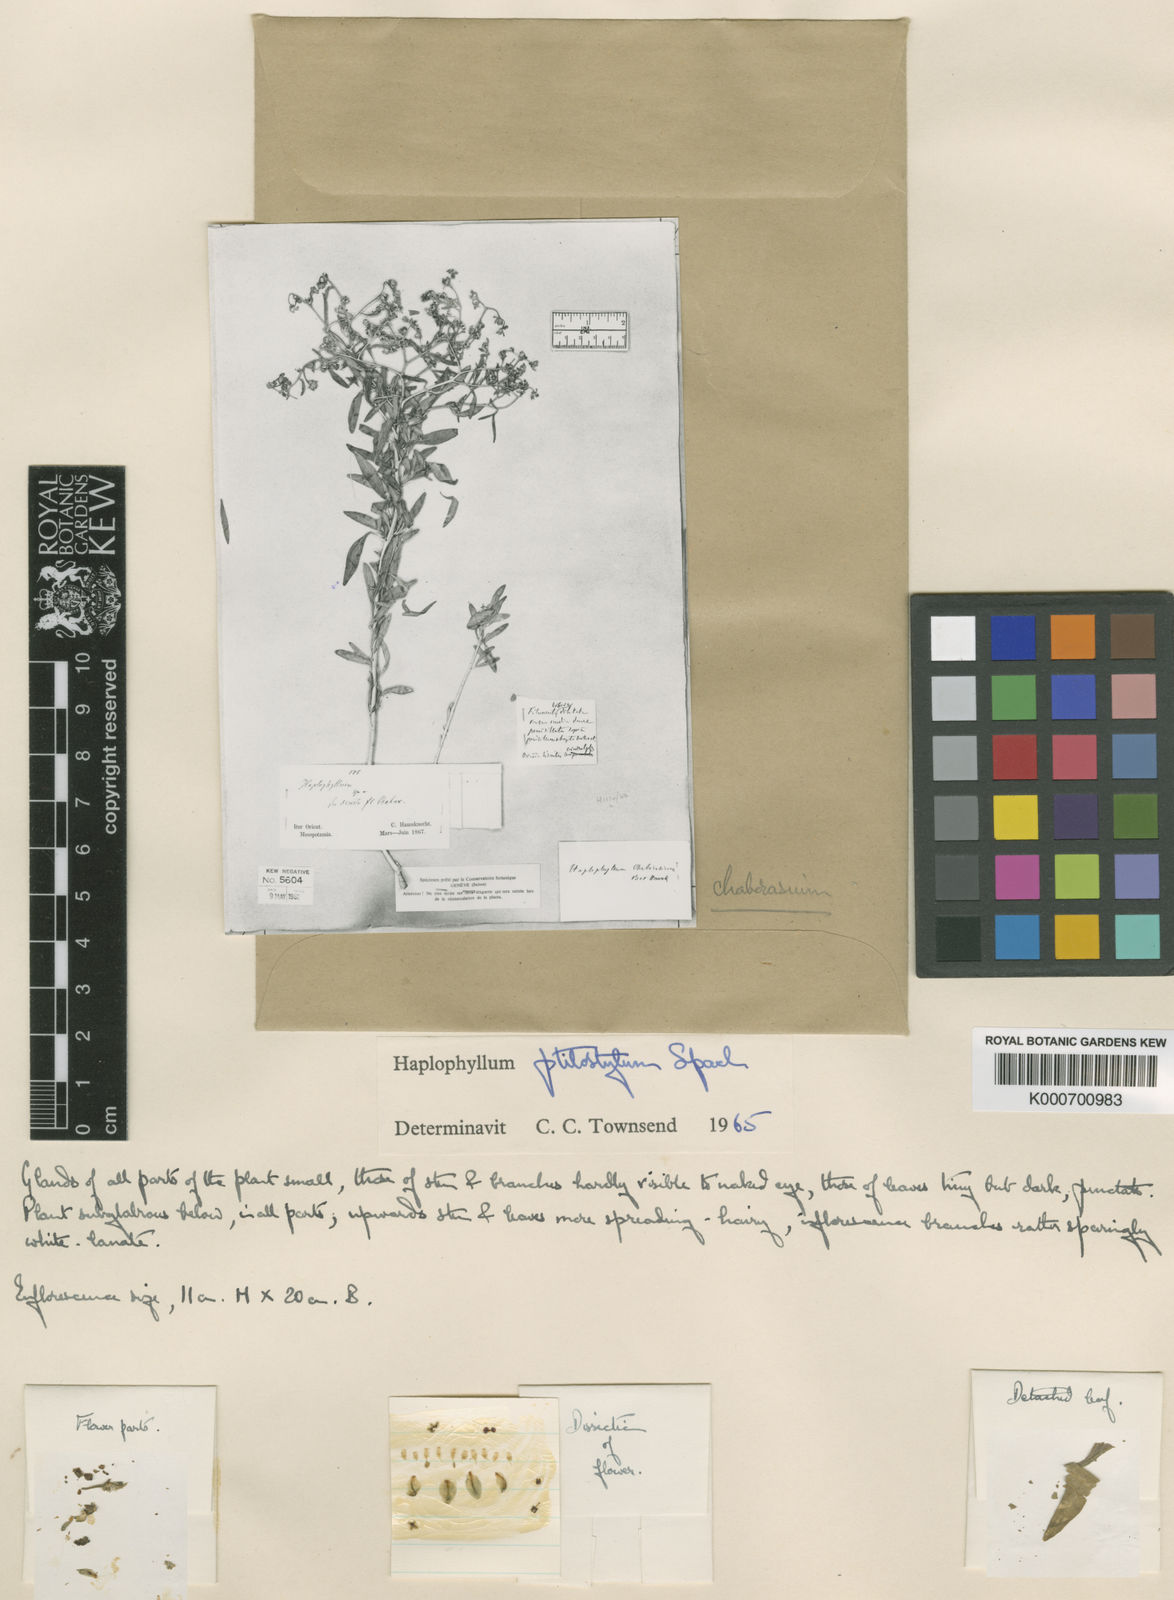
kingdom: Plantae
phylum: Tracheophyta
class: Magnoliopsida
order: Sapindales
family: Rutaceae
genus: Haplophyllum
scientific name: Haplophyllum ptilostylum
